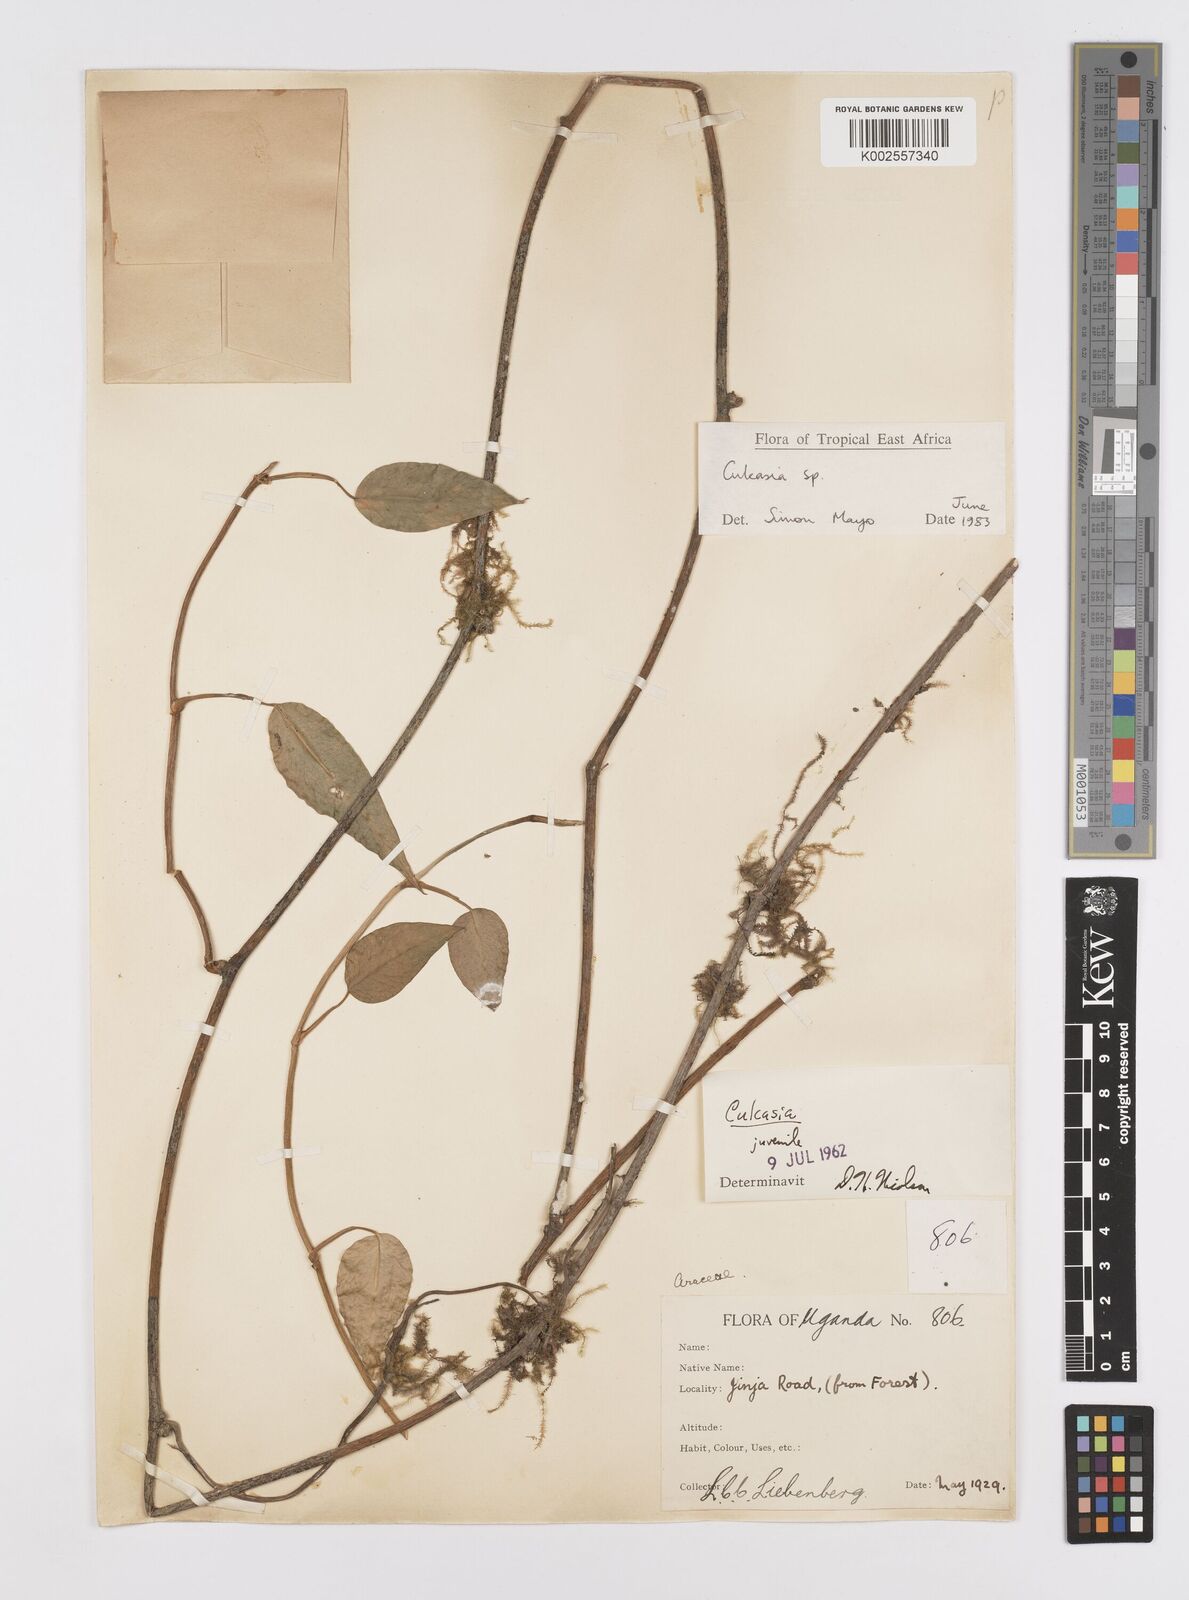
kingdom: Plantae
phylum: Tracheophyta
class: Liliopsida
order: Alismatales
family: Araceae
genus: Culcasia
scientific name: Culcasia
